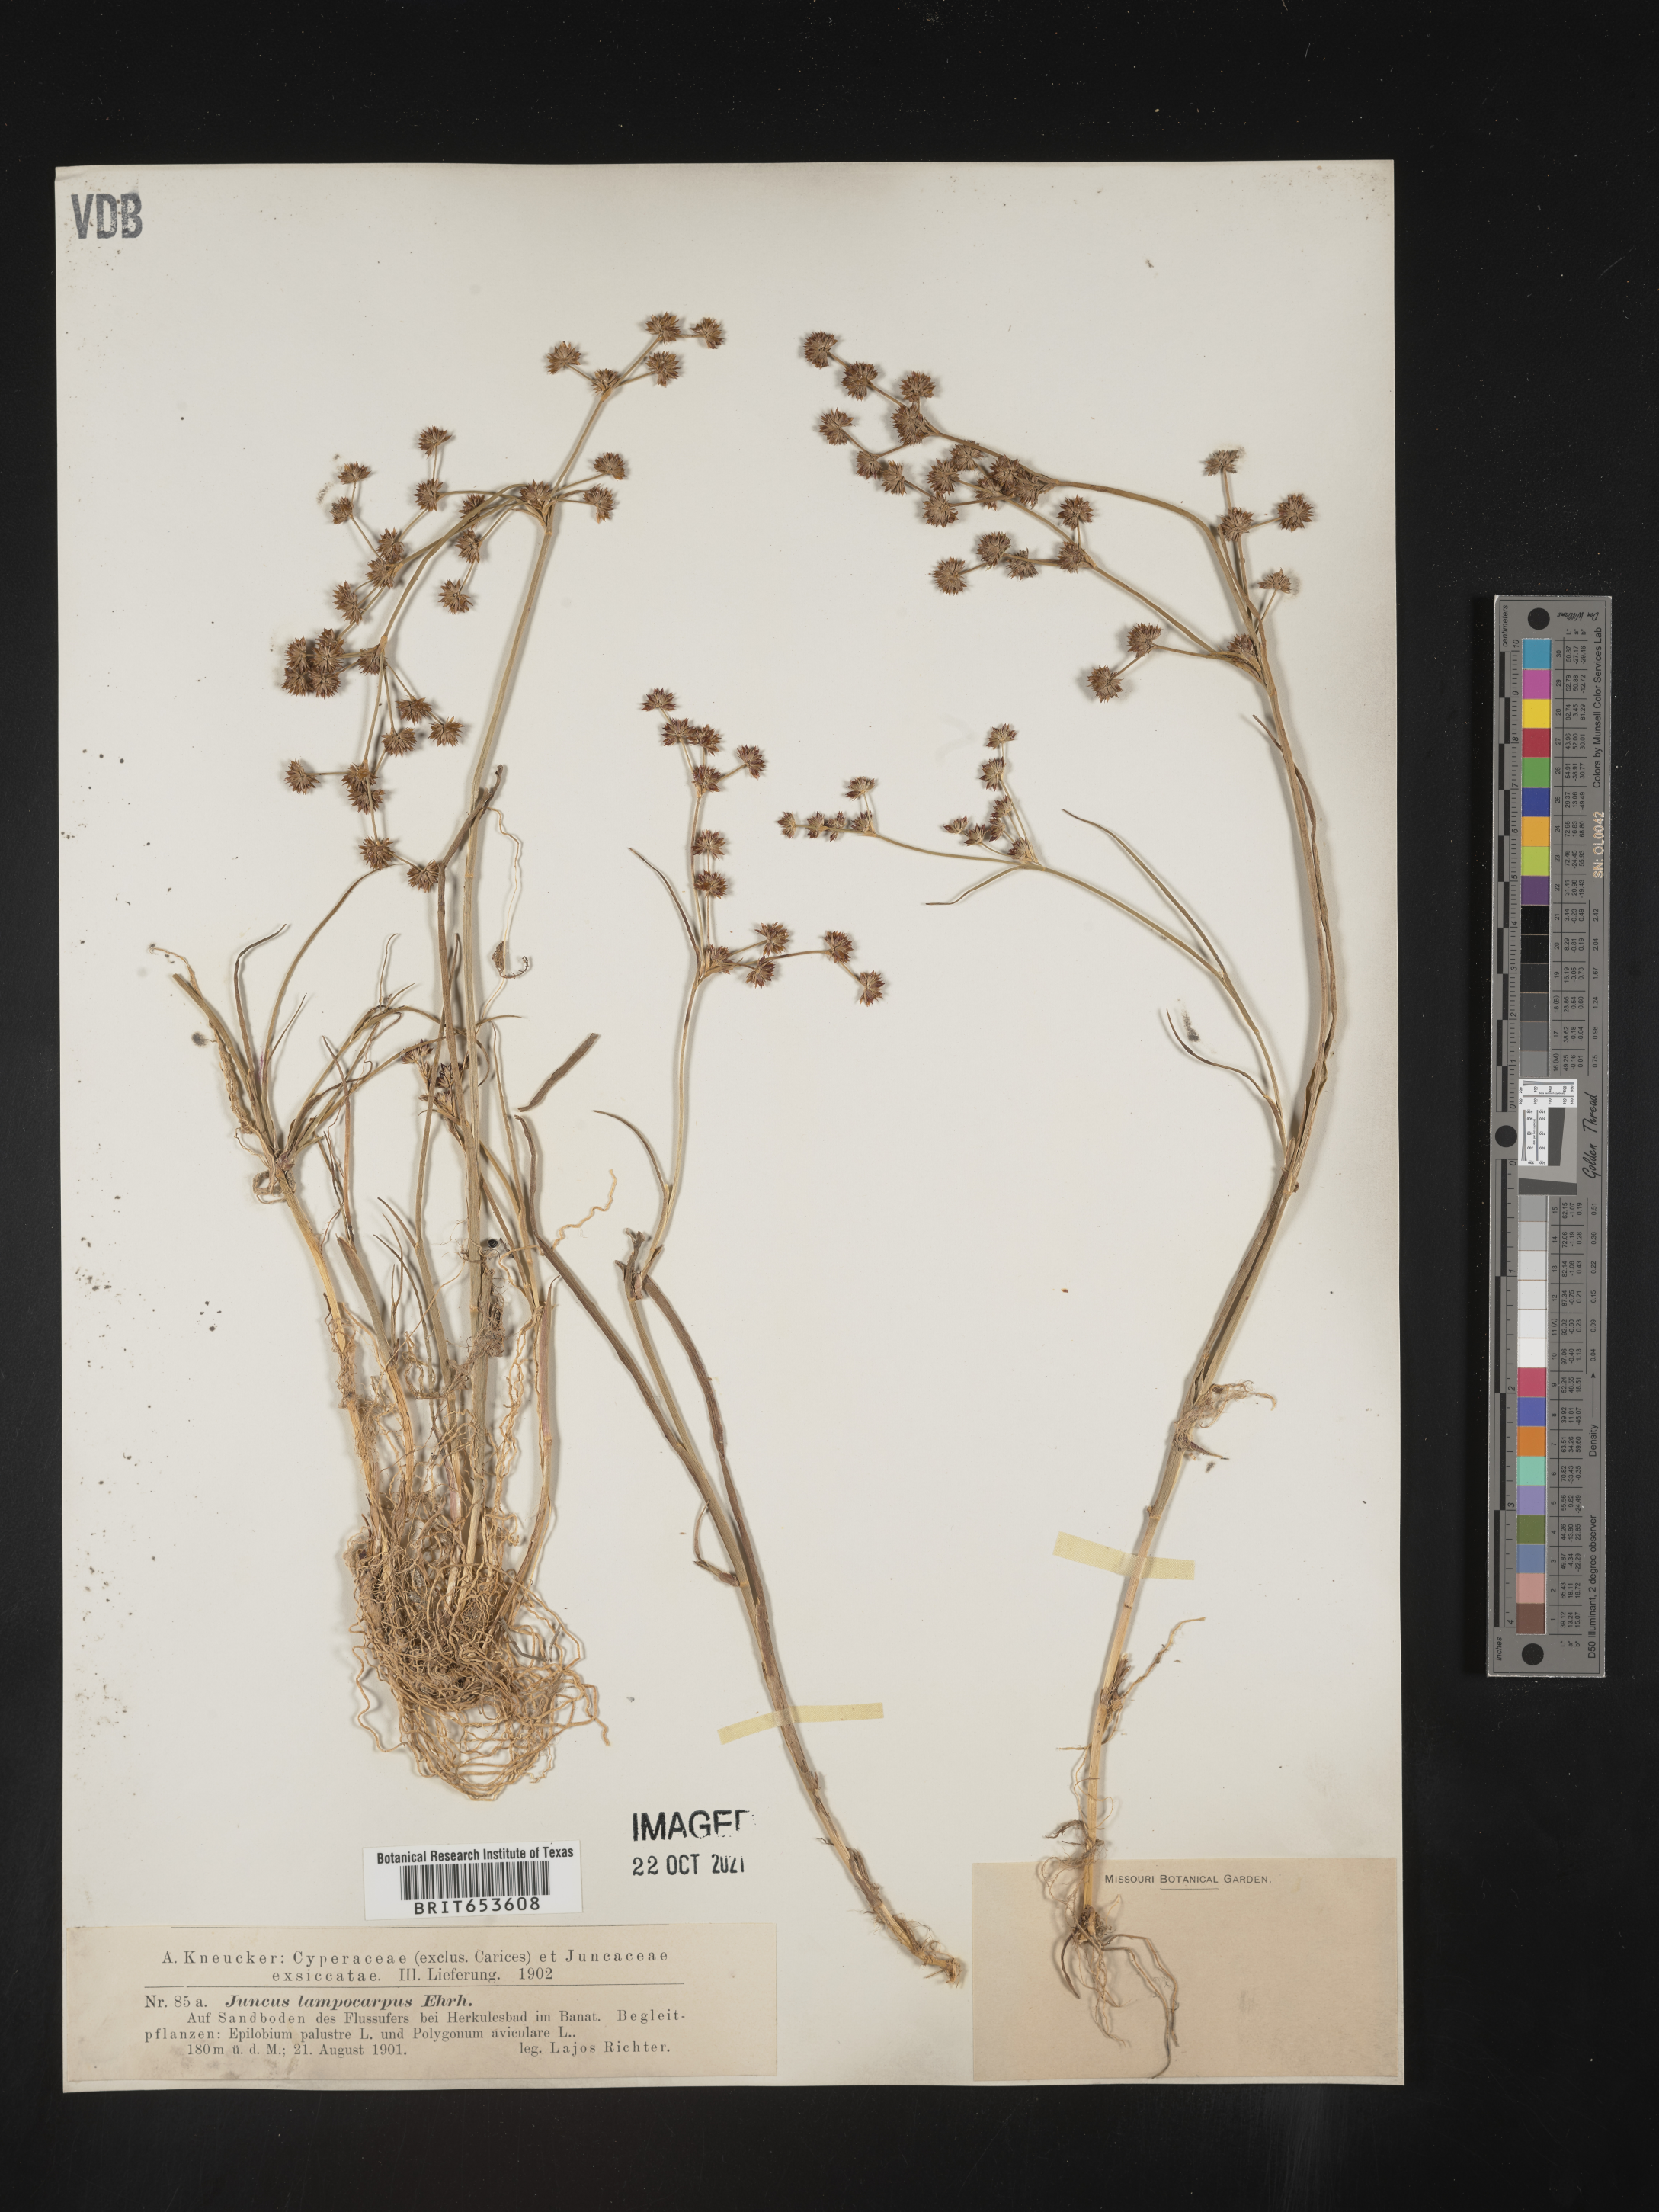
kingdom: Plantae
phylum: Tracheophyta
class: Liliopsida
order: Poales
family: Juncaceae
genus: Juncus
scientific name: Juncus
